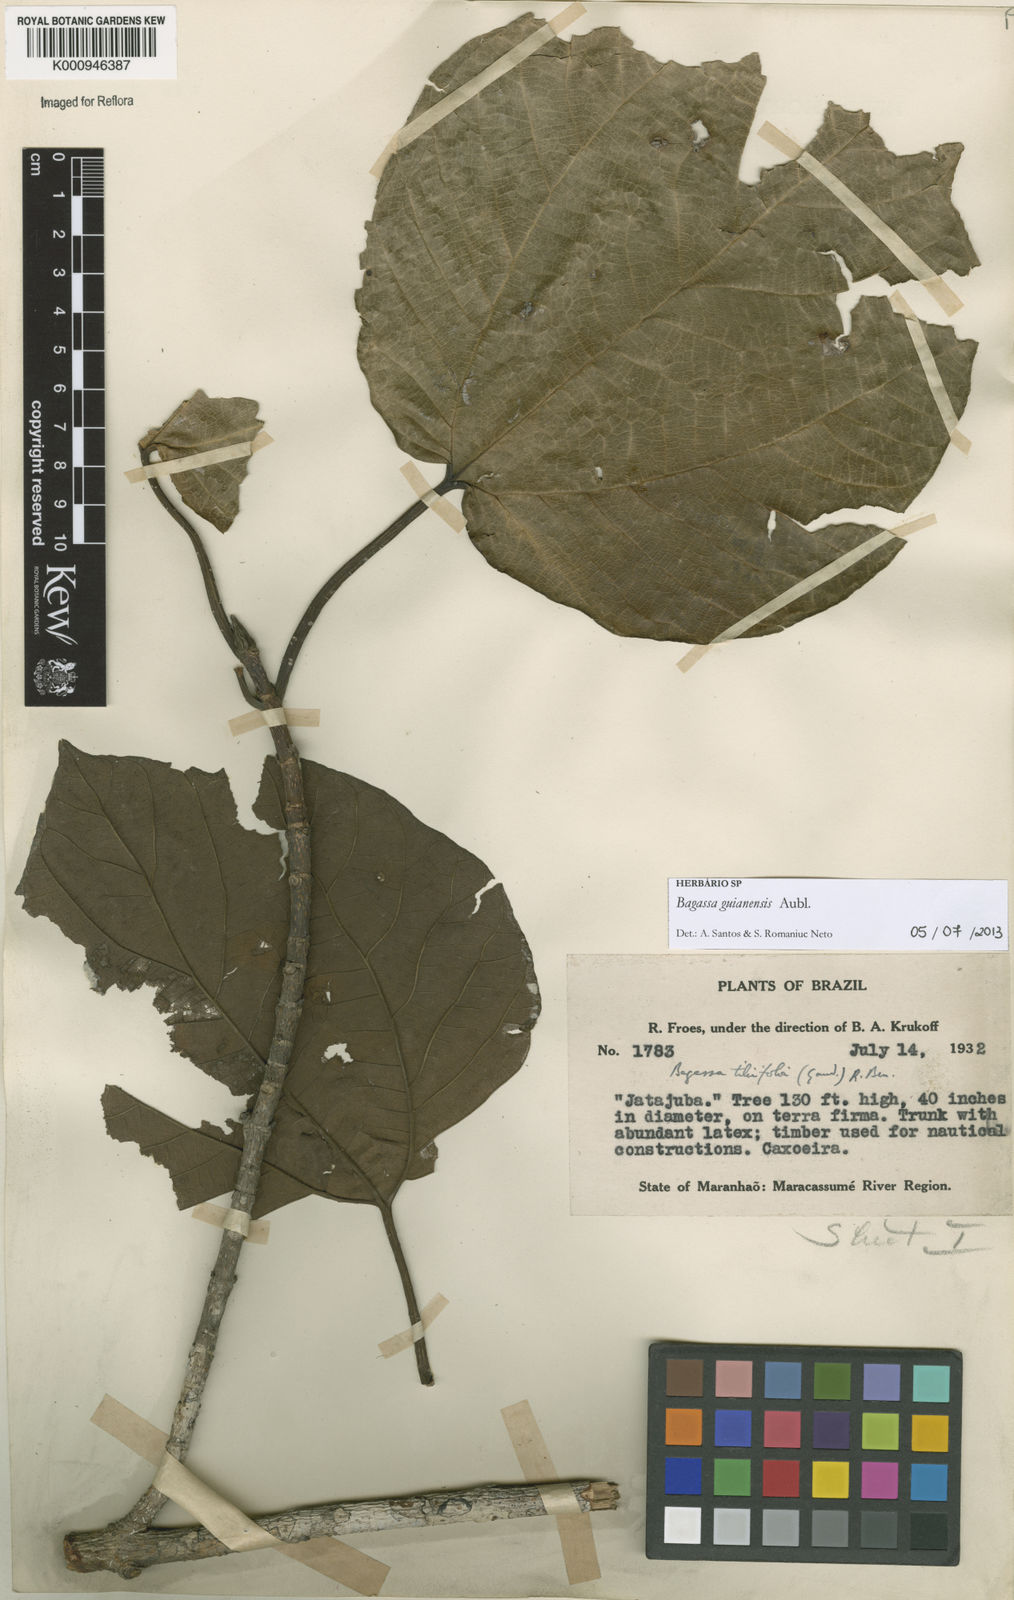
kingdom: Plantae
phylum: Tracheophyta
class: Magnoliopsida
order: Rosales
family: Moraceae
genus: Bagassa
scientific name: Bagassa guianensis
